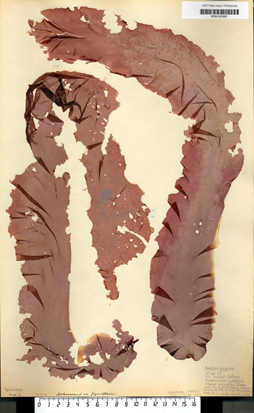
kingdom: Plantae
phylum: Rhodophyta
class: Bangiophyceae
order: Bangiales
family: Bangiaceae
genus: Porphyra
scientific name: Porphyra purpurea
